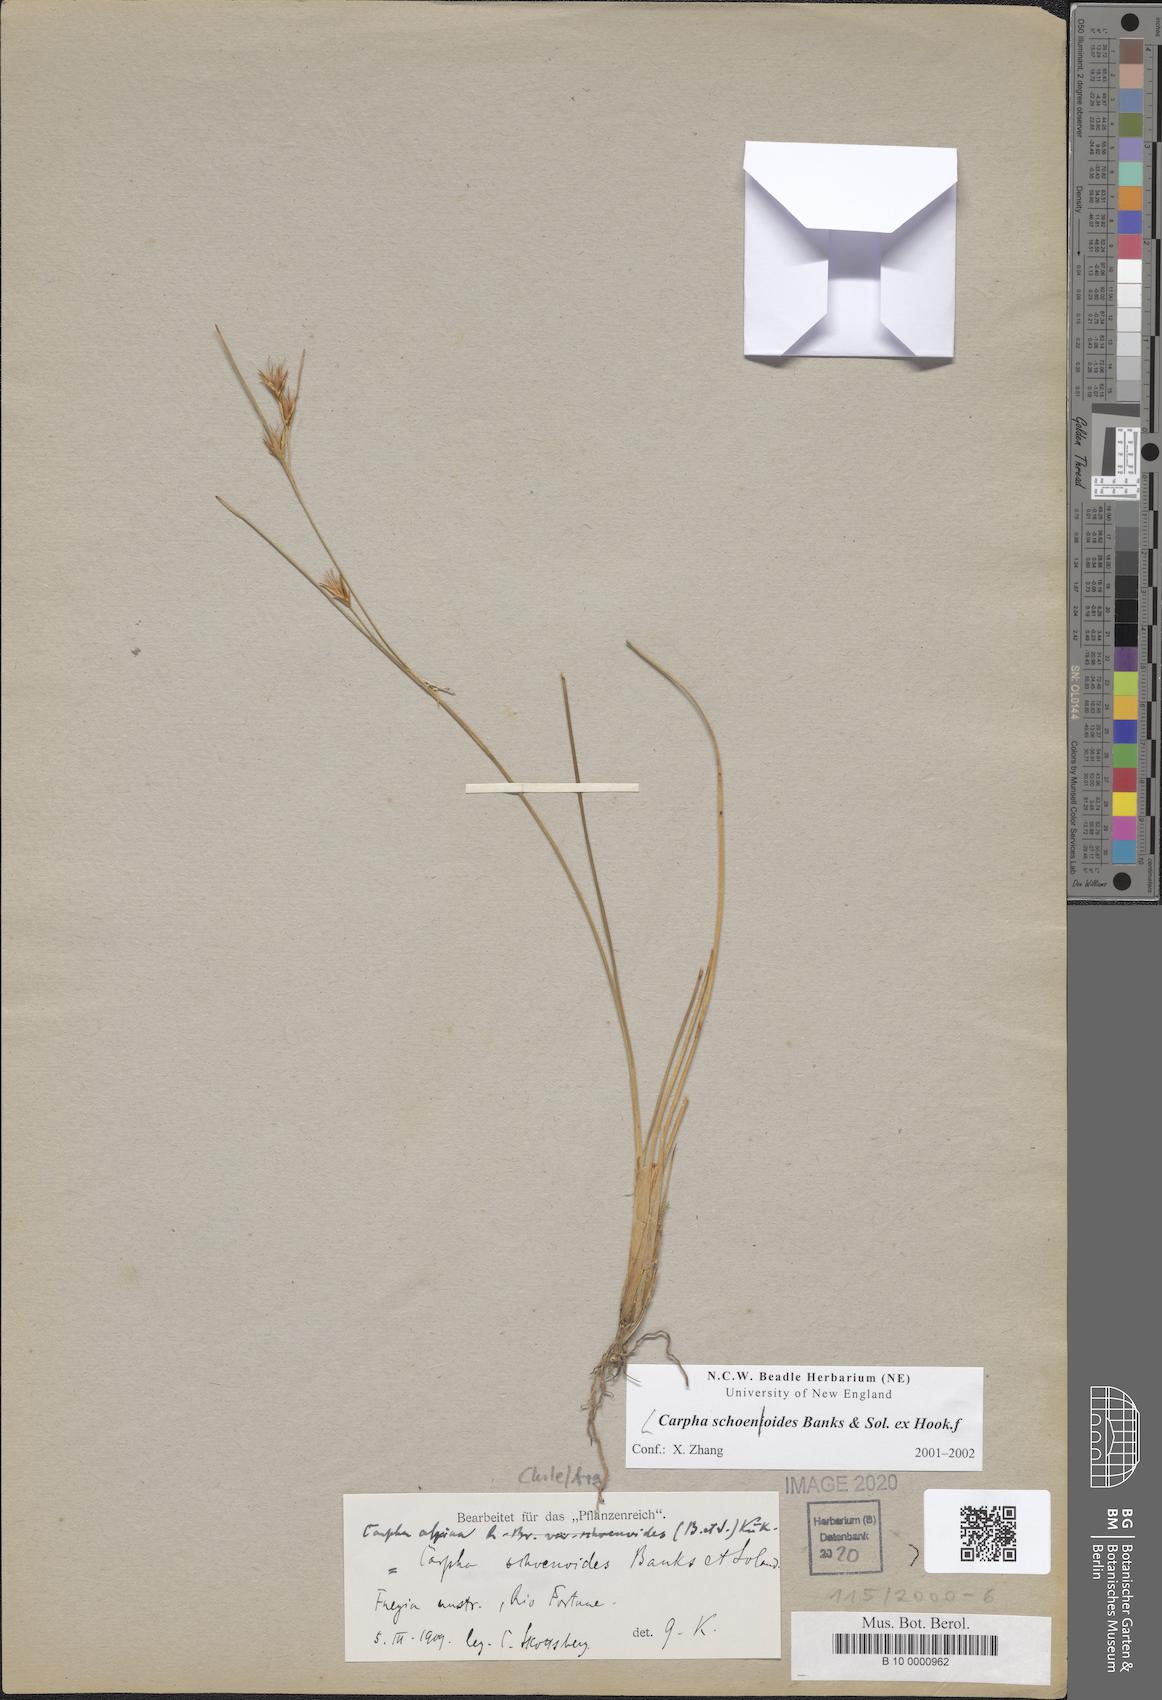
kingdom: Plantae
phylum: Tracheophyta
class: Liliopsida
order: Poales
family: Cyperaceae
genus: Carpha
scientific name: Carpha schoenoides
